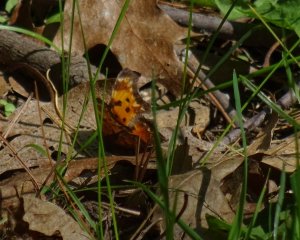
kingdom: Animalia
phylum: Arthropoda
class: Insecta
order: Lepidoptera
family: Nymphalidae
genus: Polygonia
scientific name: Polygonia comma
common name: Eastern Comma
